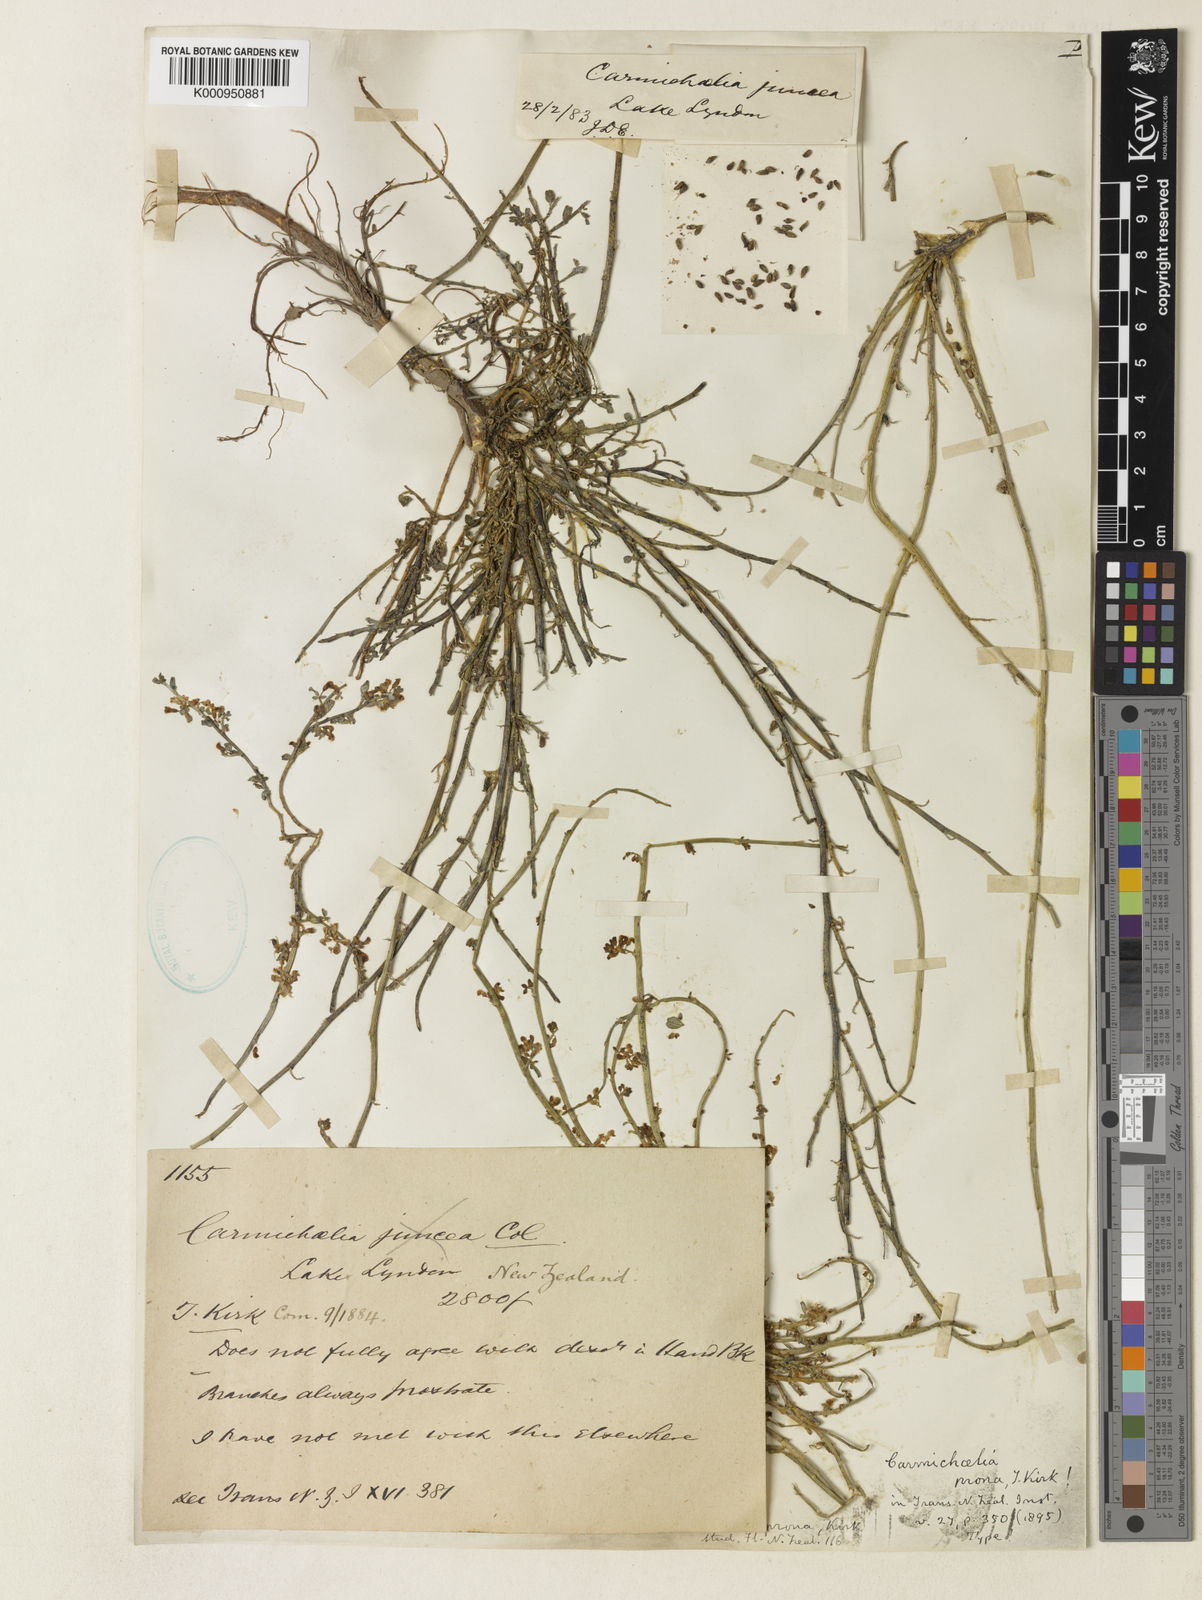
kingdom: Plantae
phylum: Tracheophyta
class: Magnoliopsida
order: Fabales
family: Fabaceae
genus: Carmichaelia
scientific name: Carmichaelia juncea
